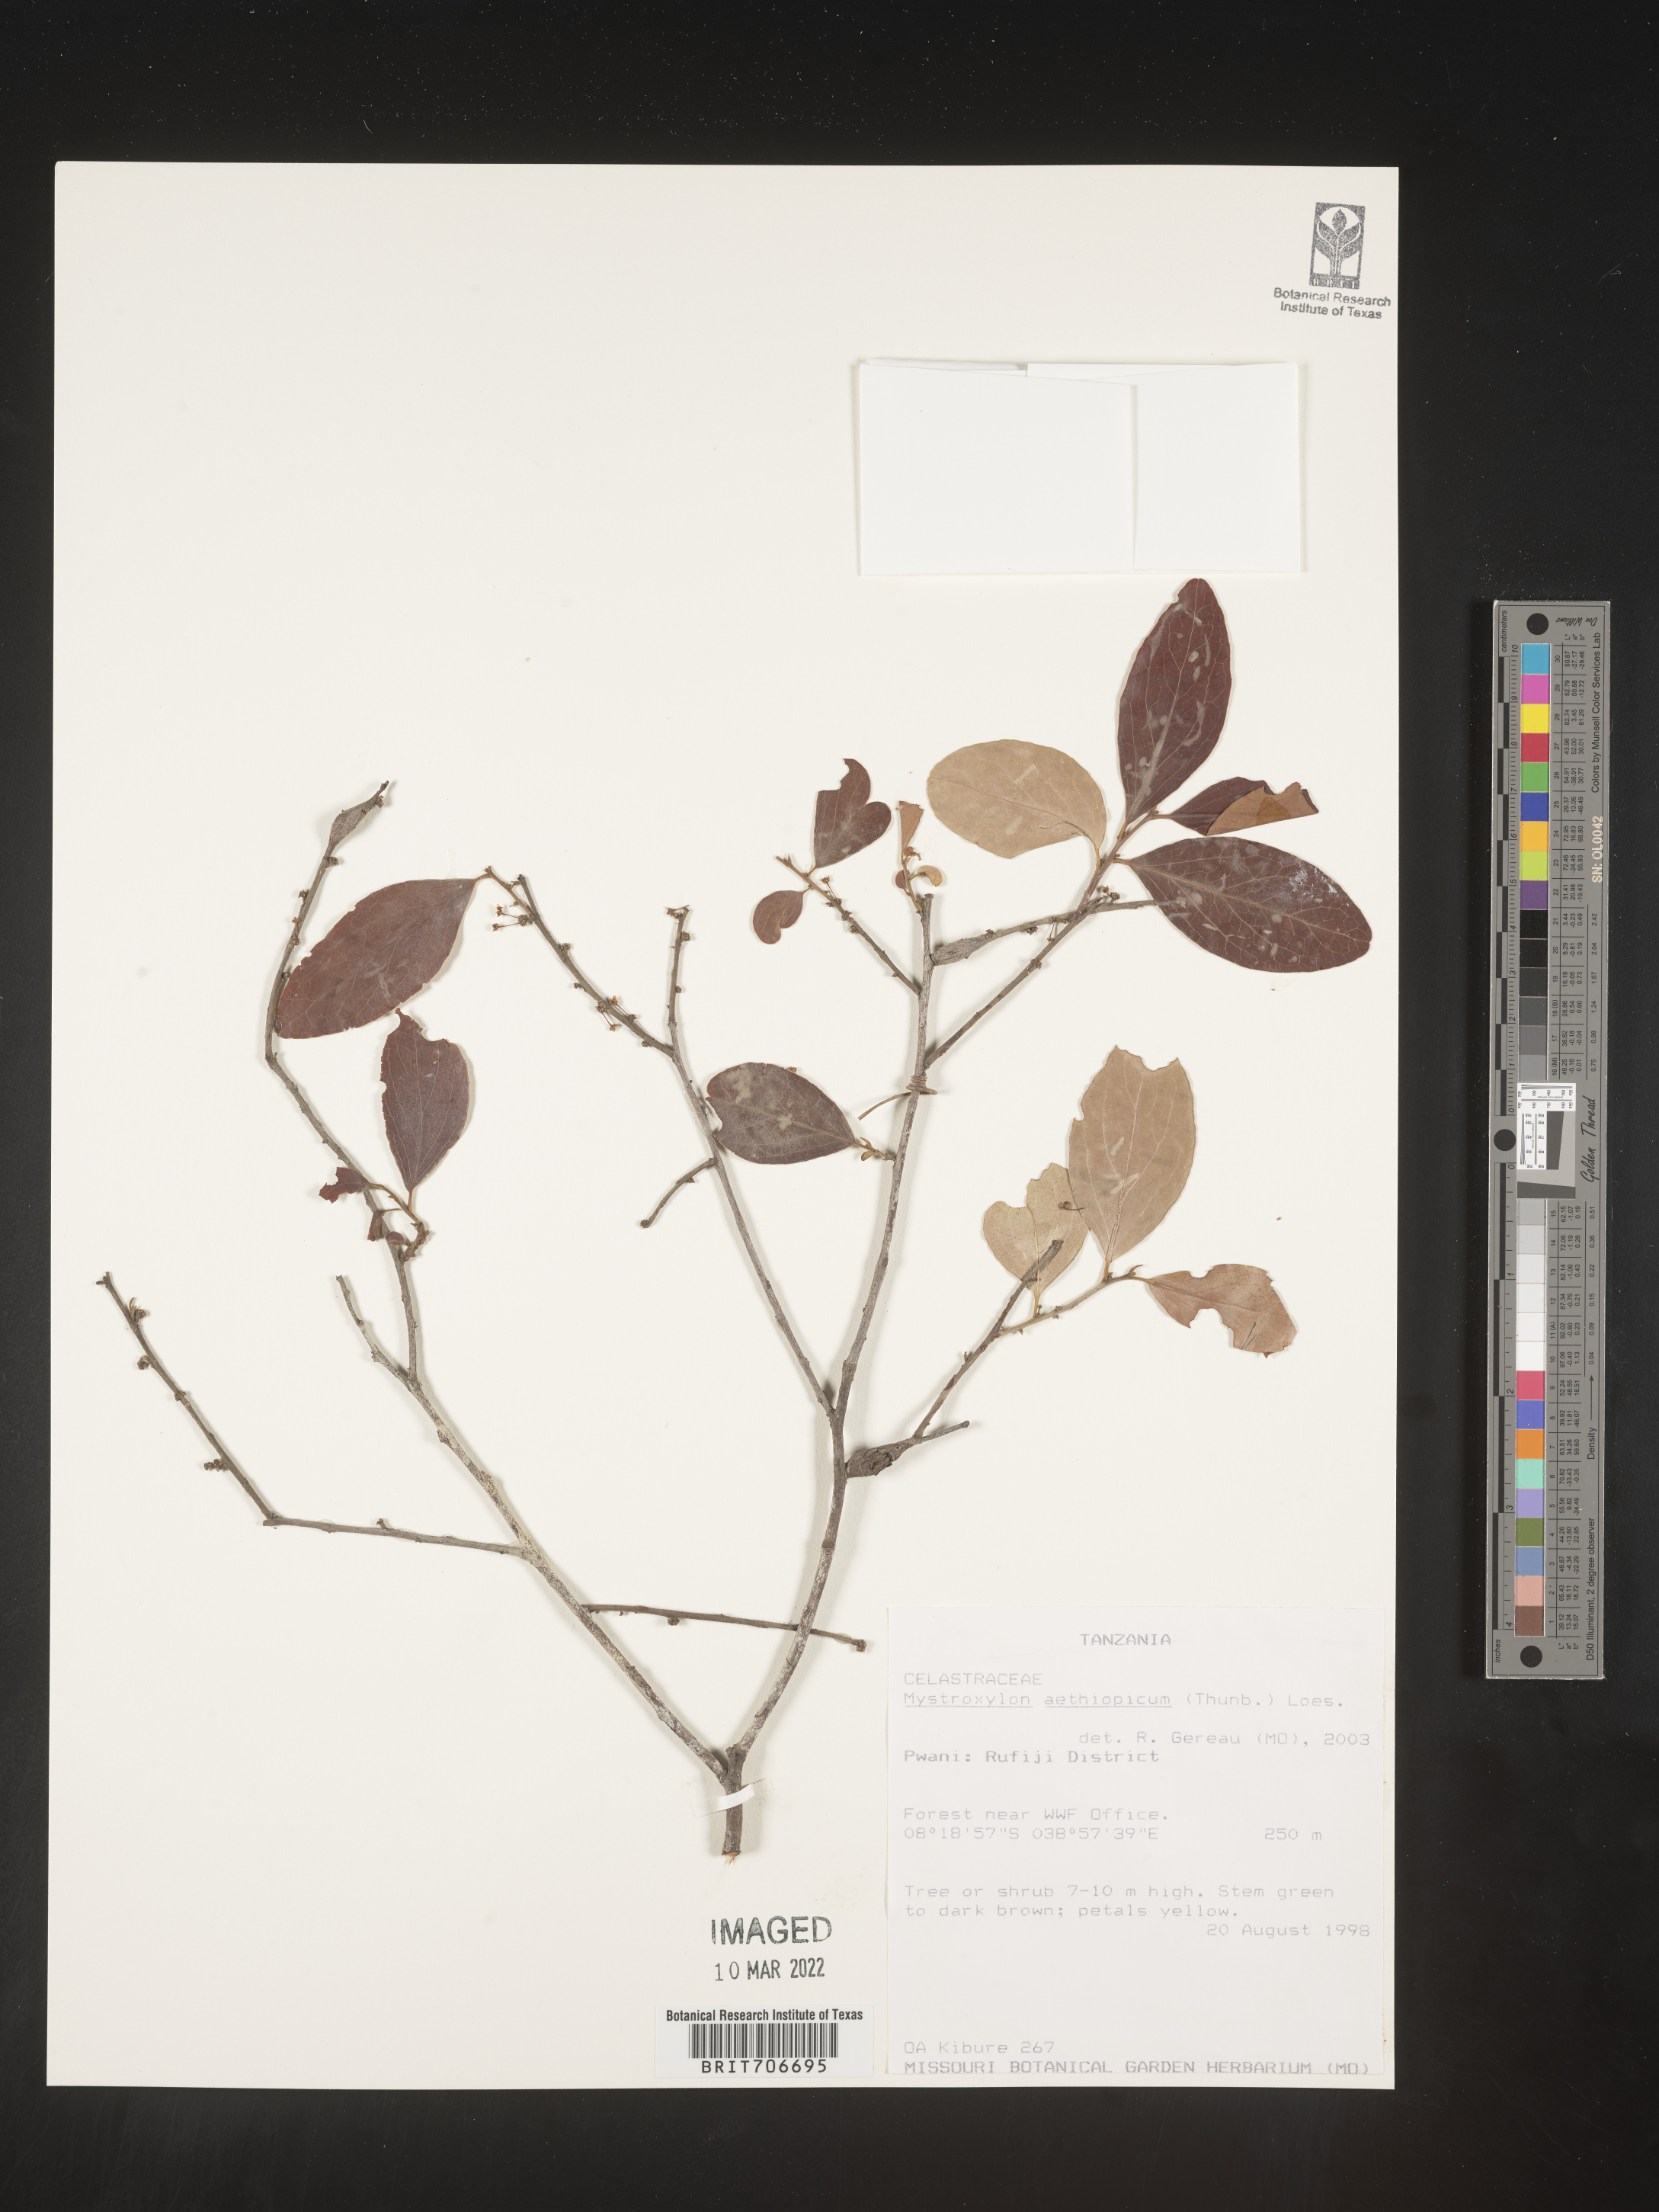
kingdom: Plantae
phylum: Tracheophyta
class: Magnoliopsida
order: Celastrales
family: Celastraceae
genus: Mystroxylon
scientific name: Mystroxylon
